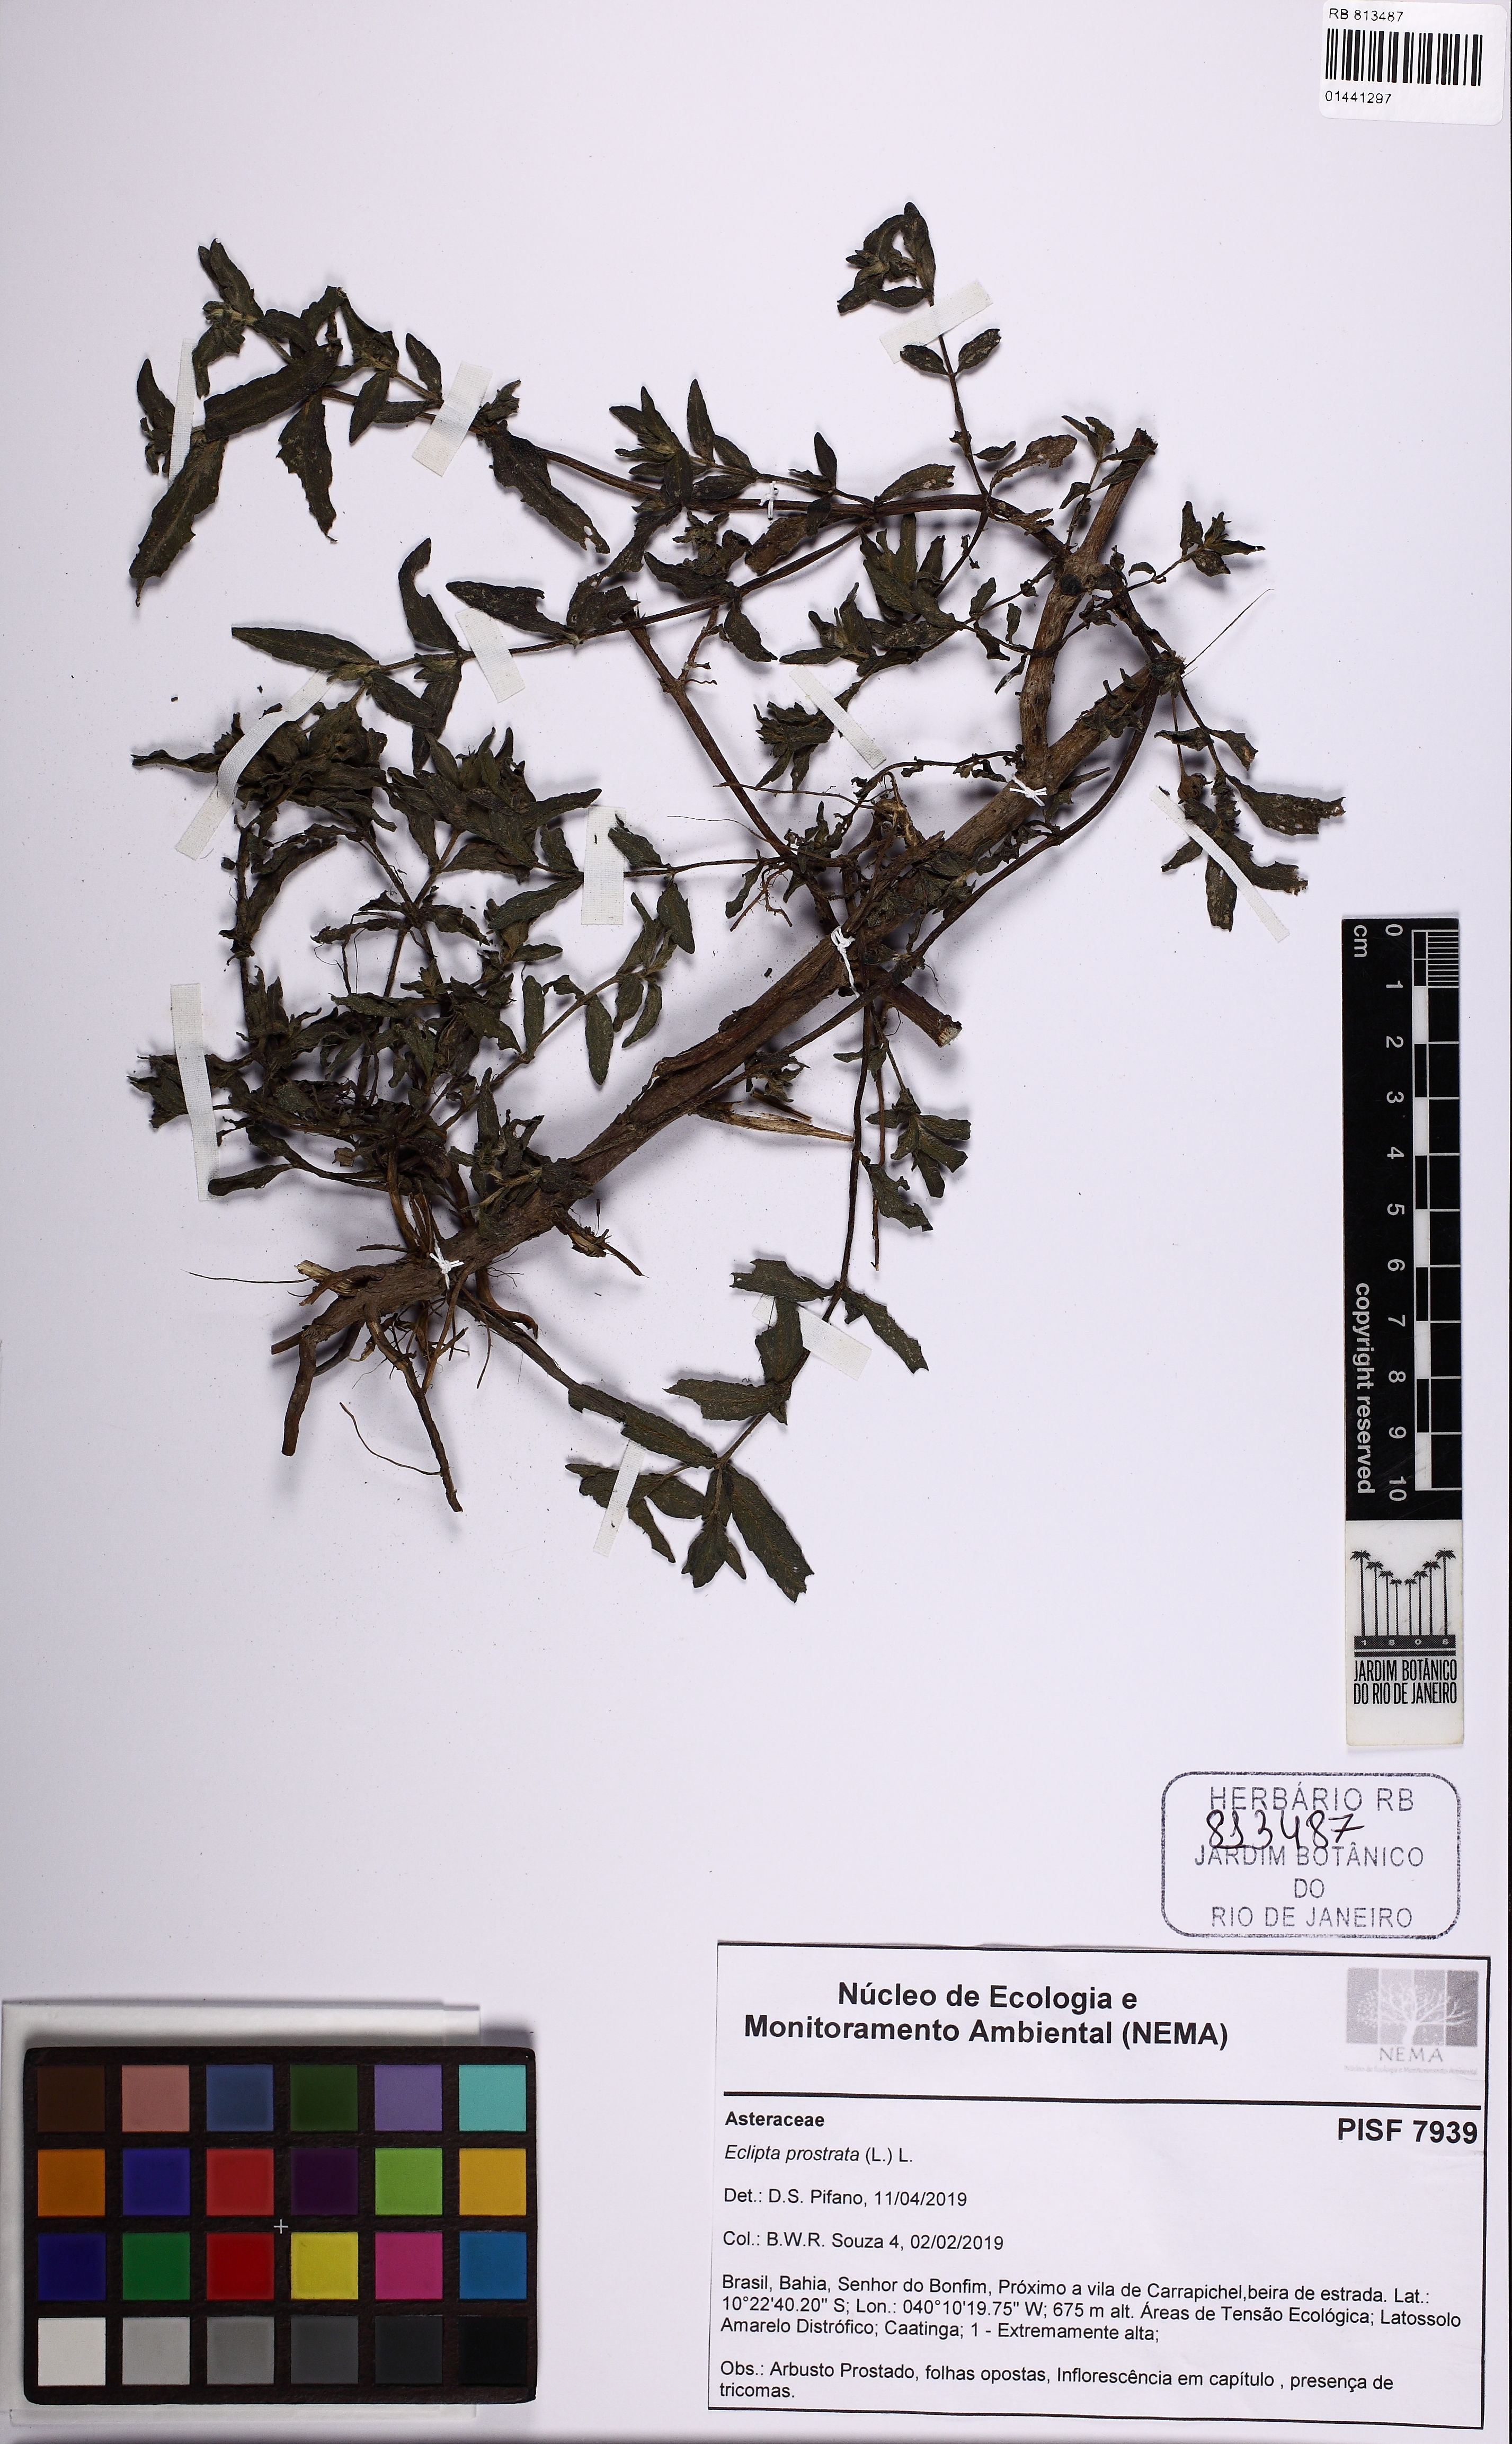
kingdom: Plantae
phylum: Tracheophyta
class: Magnoliopsida
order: Asterales
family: Asteraceae
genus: Eclipta
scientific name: Eclipta prostrata
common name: False daisy
